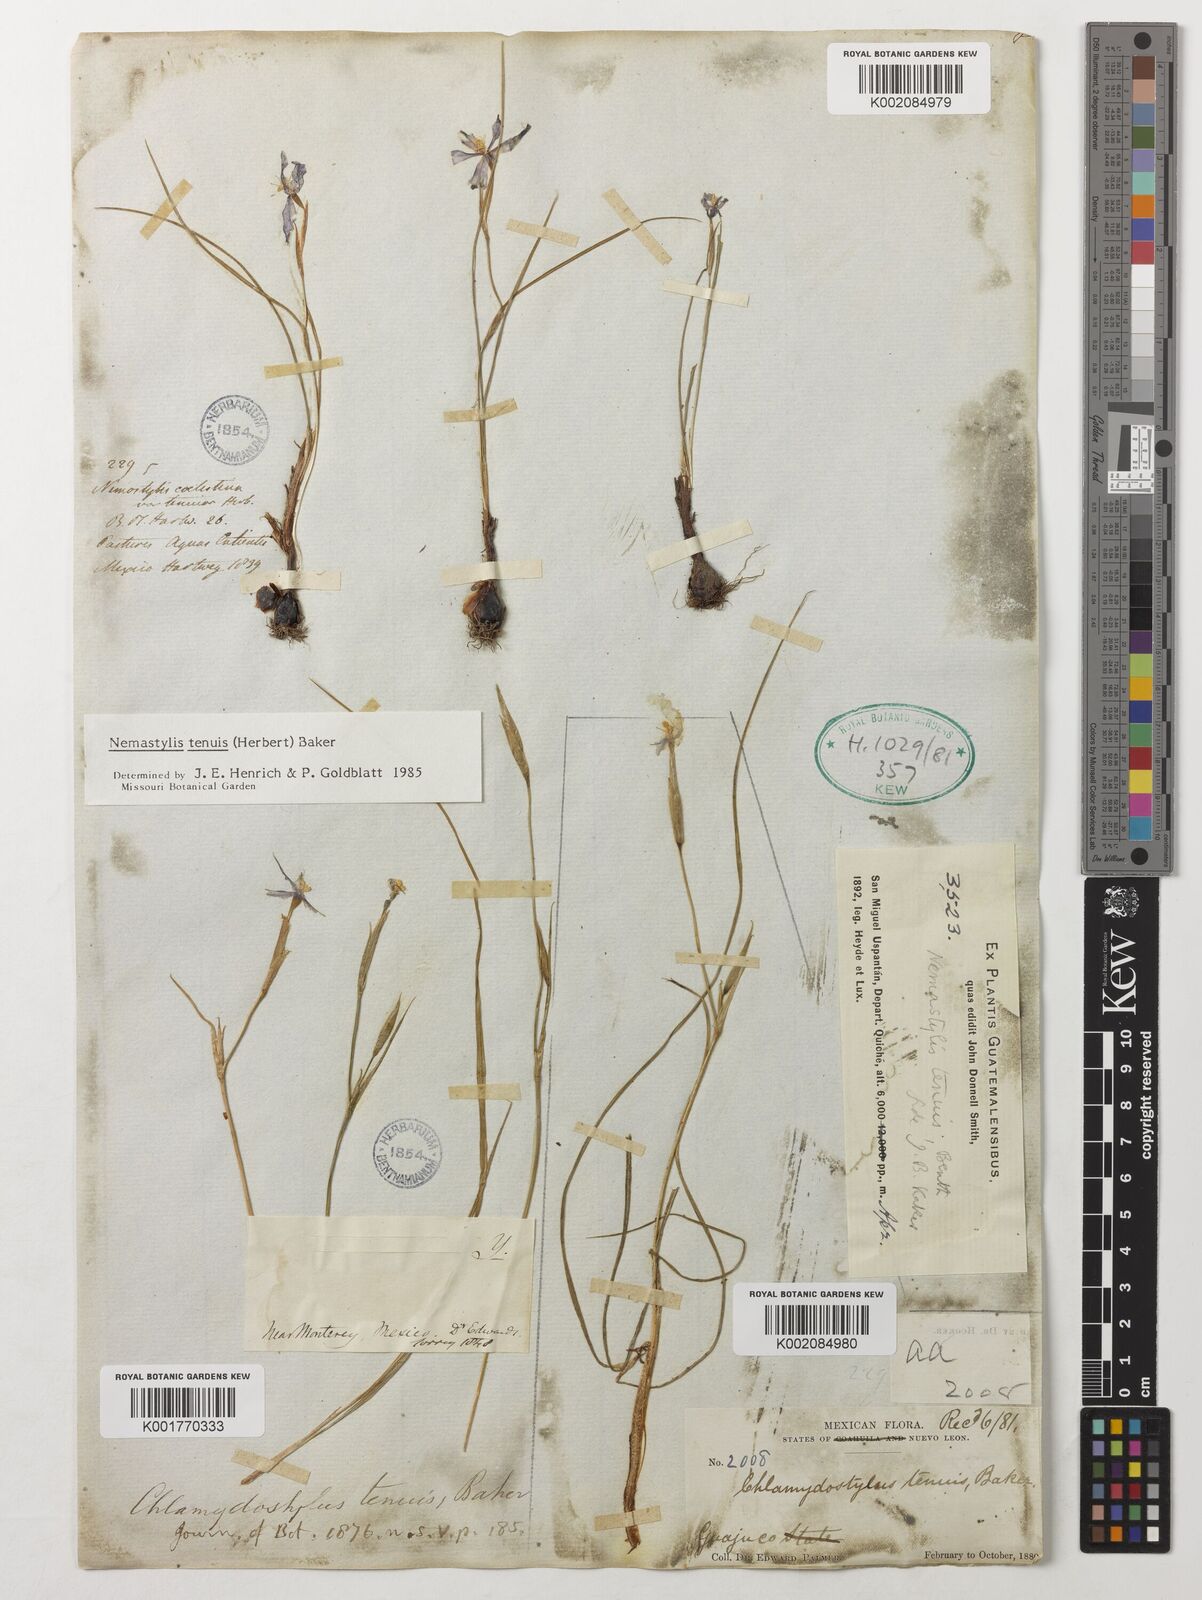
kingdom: Plantae
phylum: Tracheophyta
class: Liliopsida
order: Asparagales
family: Iridaceae
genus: Nemastylis
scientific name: Nemastylis tenuis
